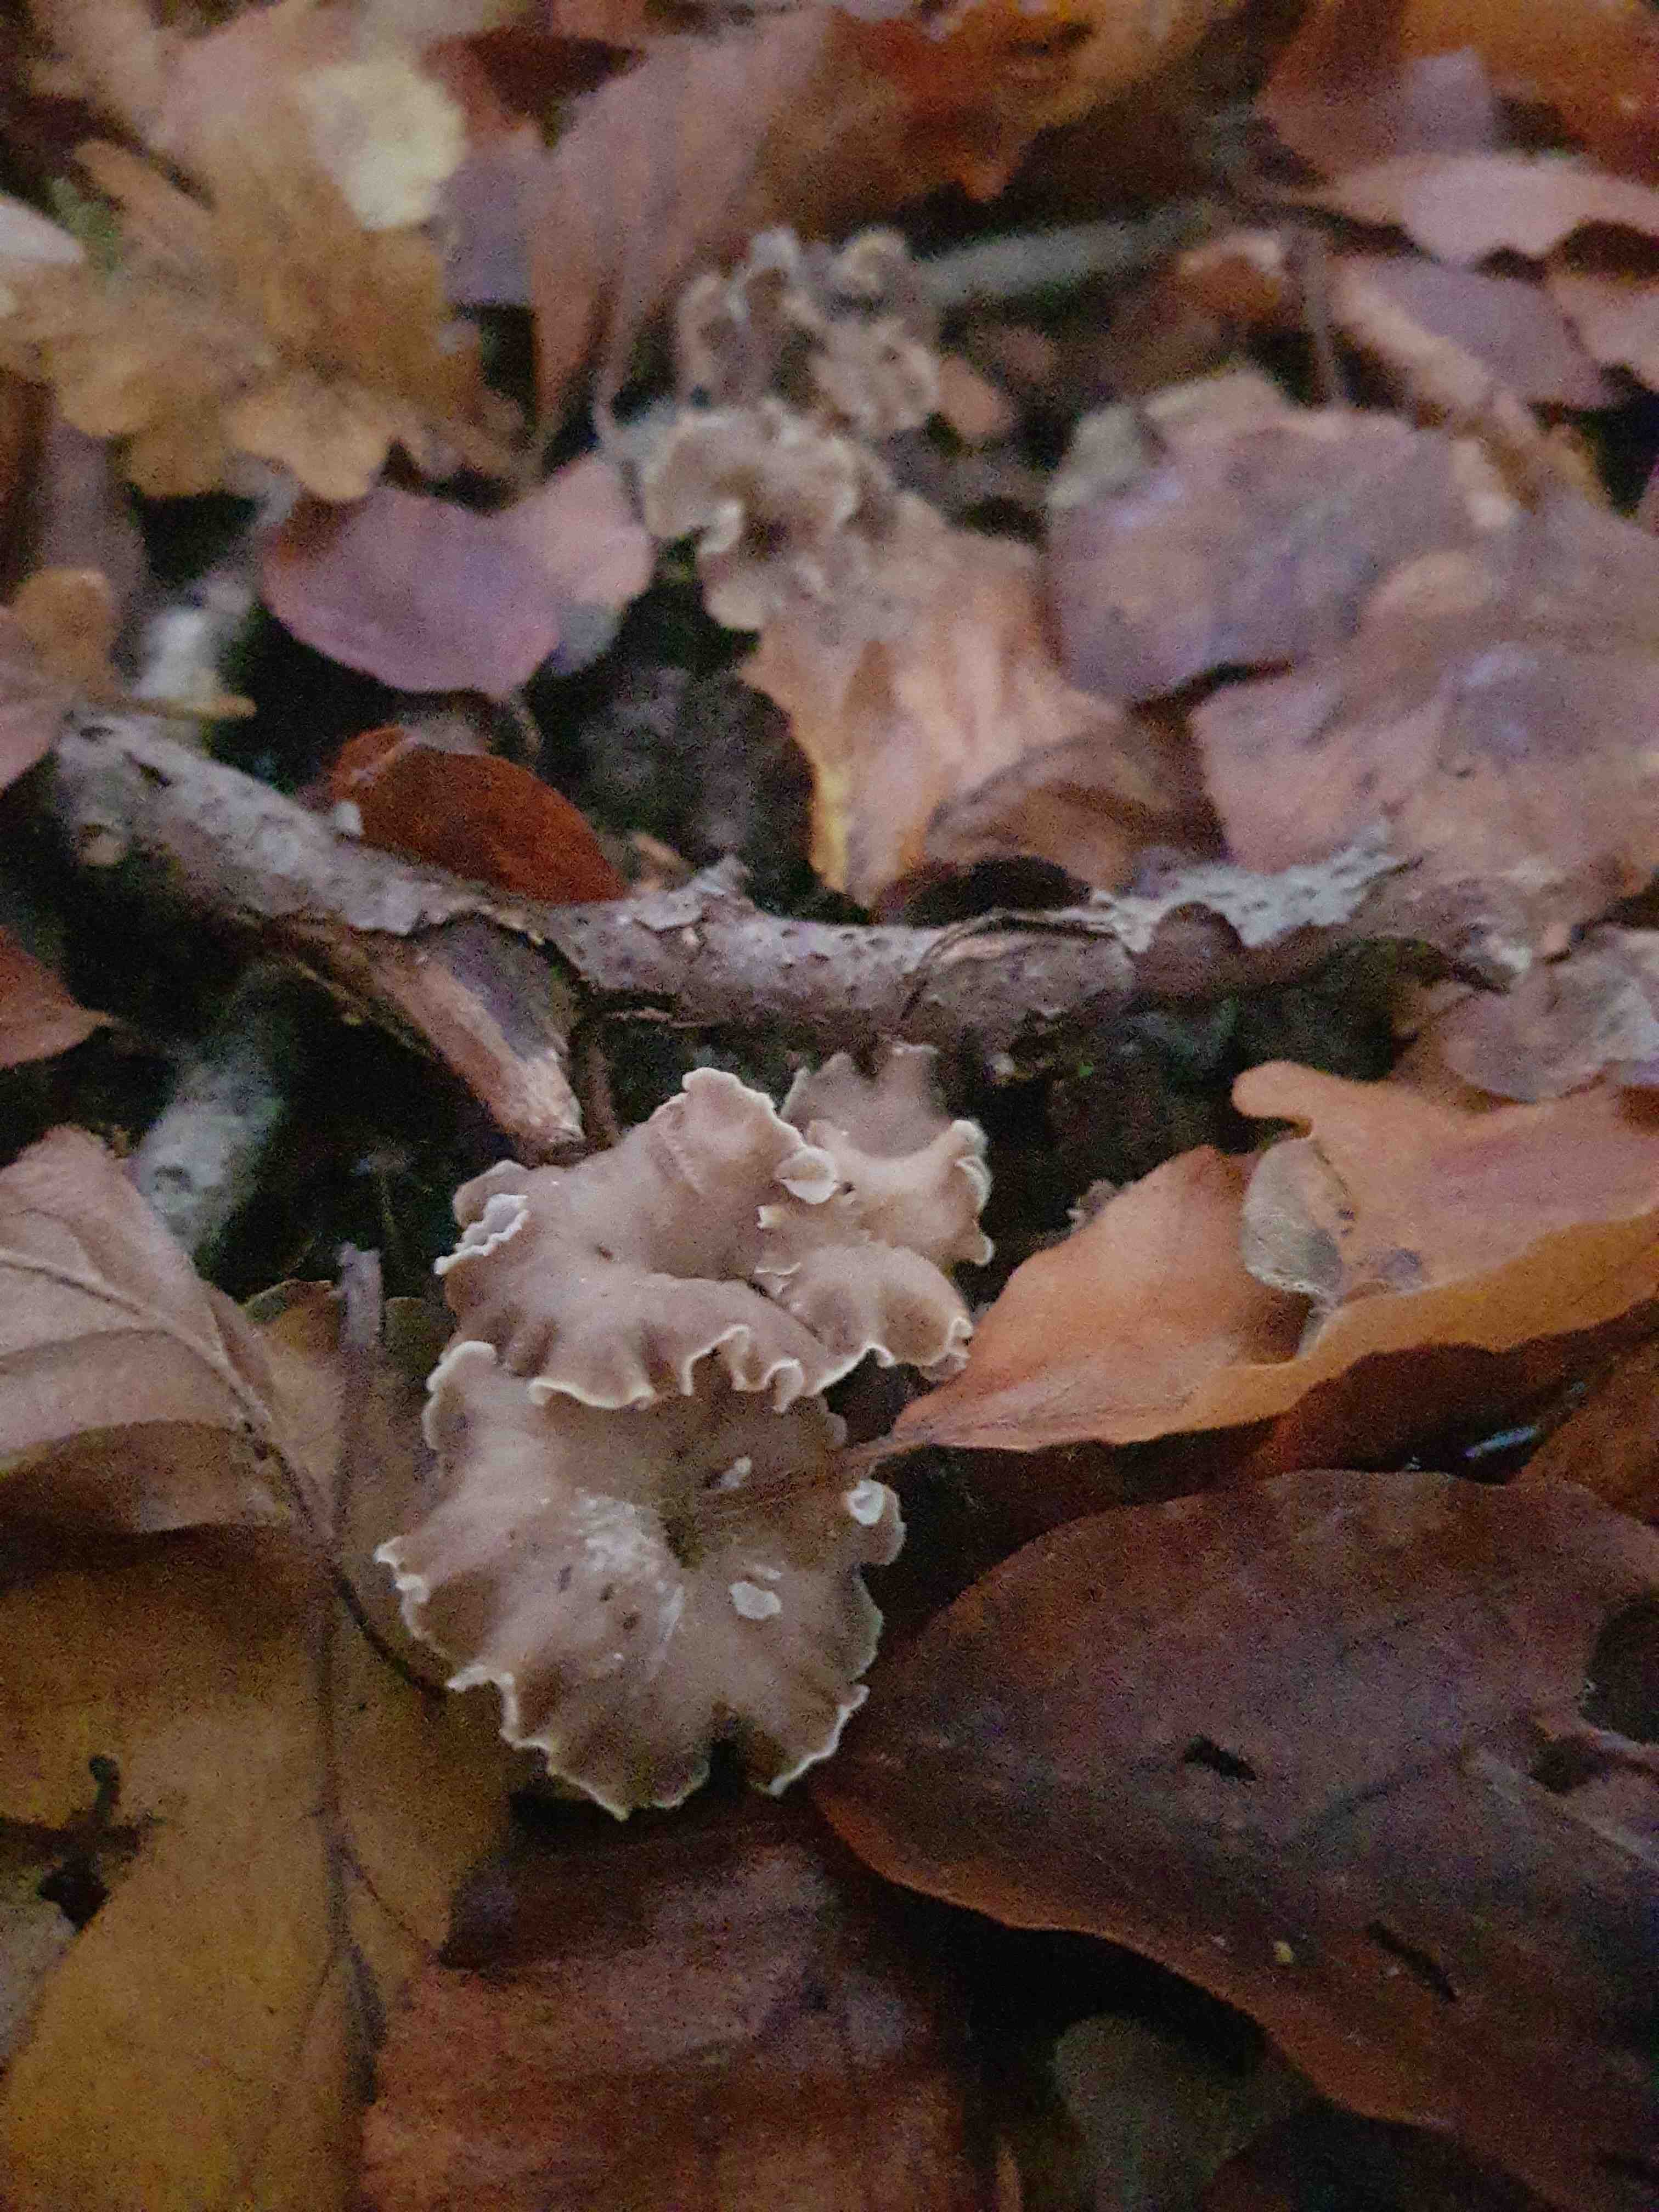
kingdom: Fungi
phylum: Basidiomycota
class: Agaricomycetes
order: Cantharellales
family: Hydnaceae
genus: Craterellus
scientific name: Craterellus undulatus
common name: liden kantarel
